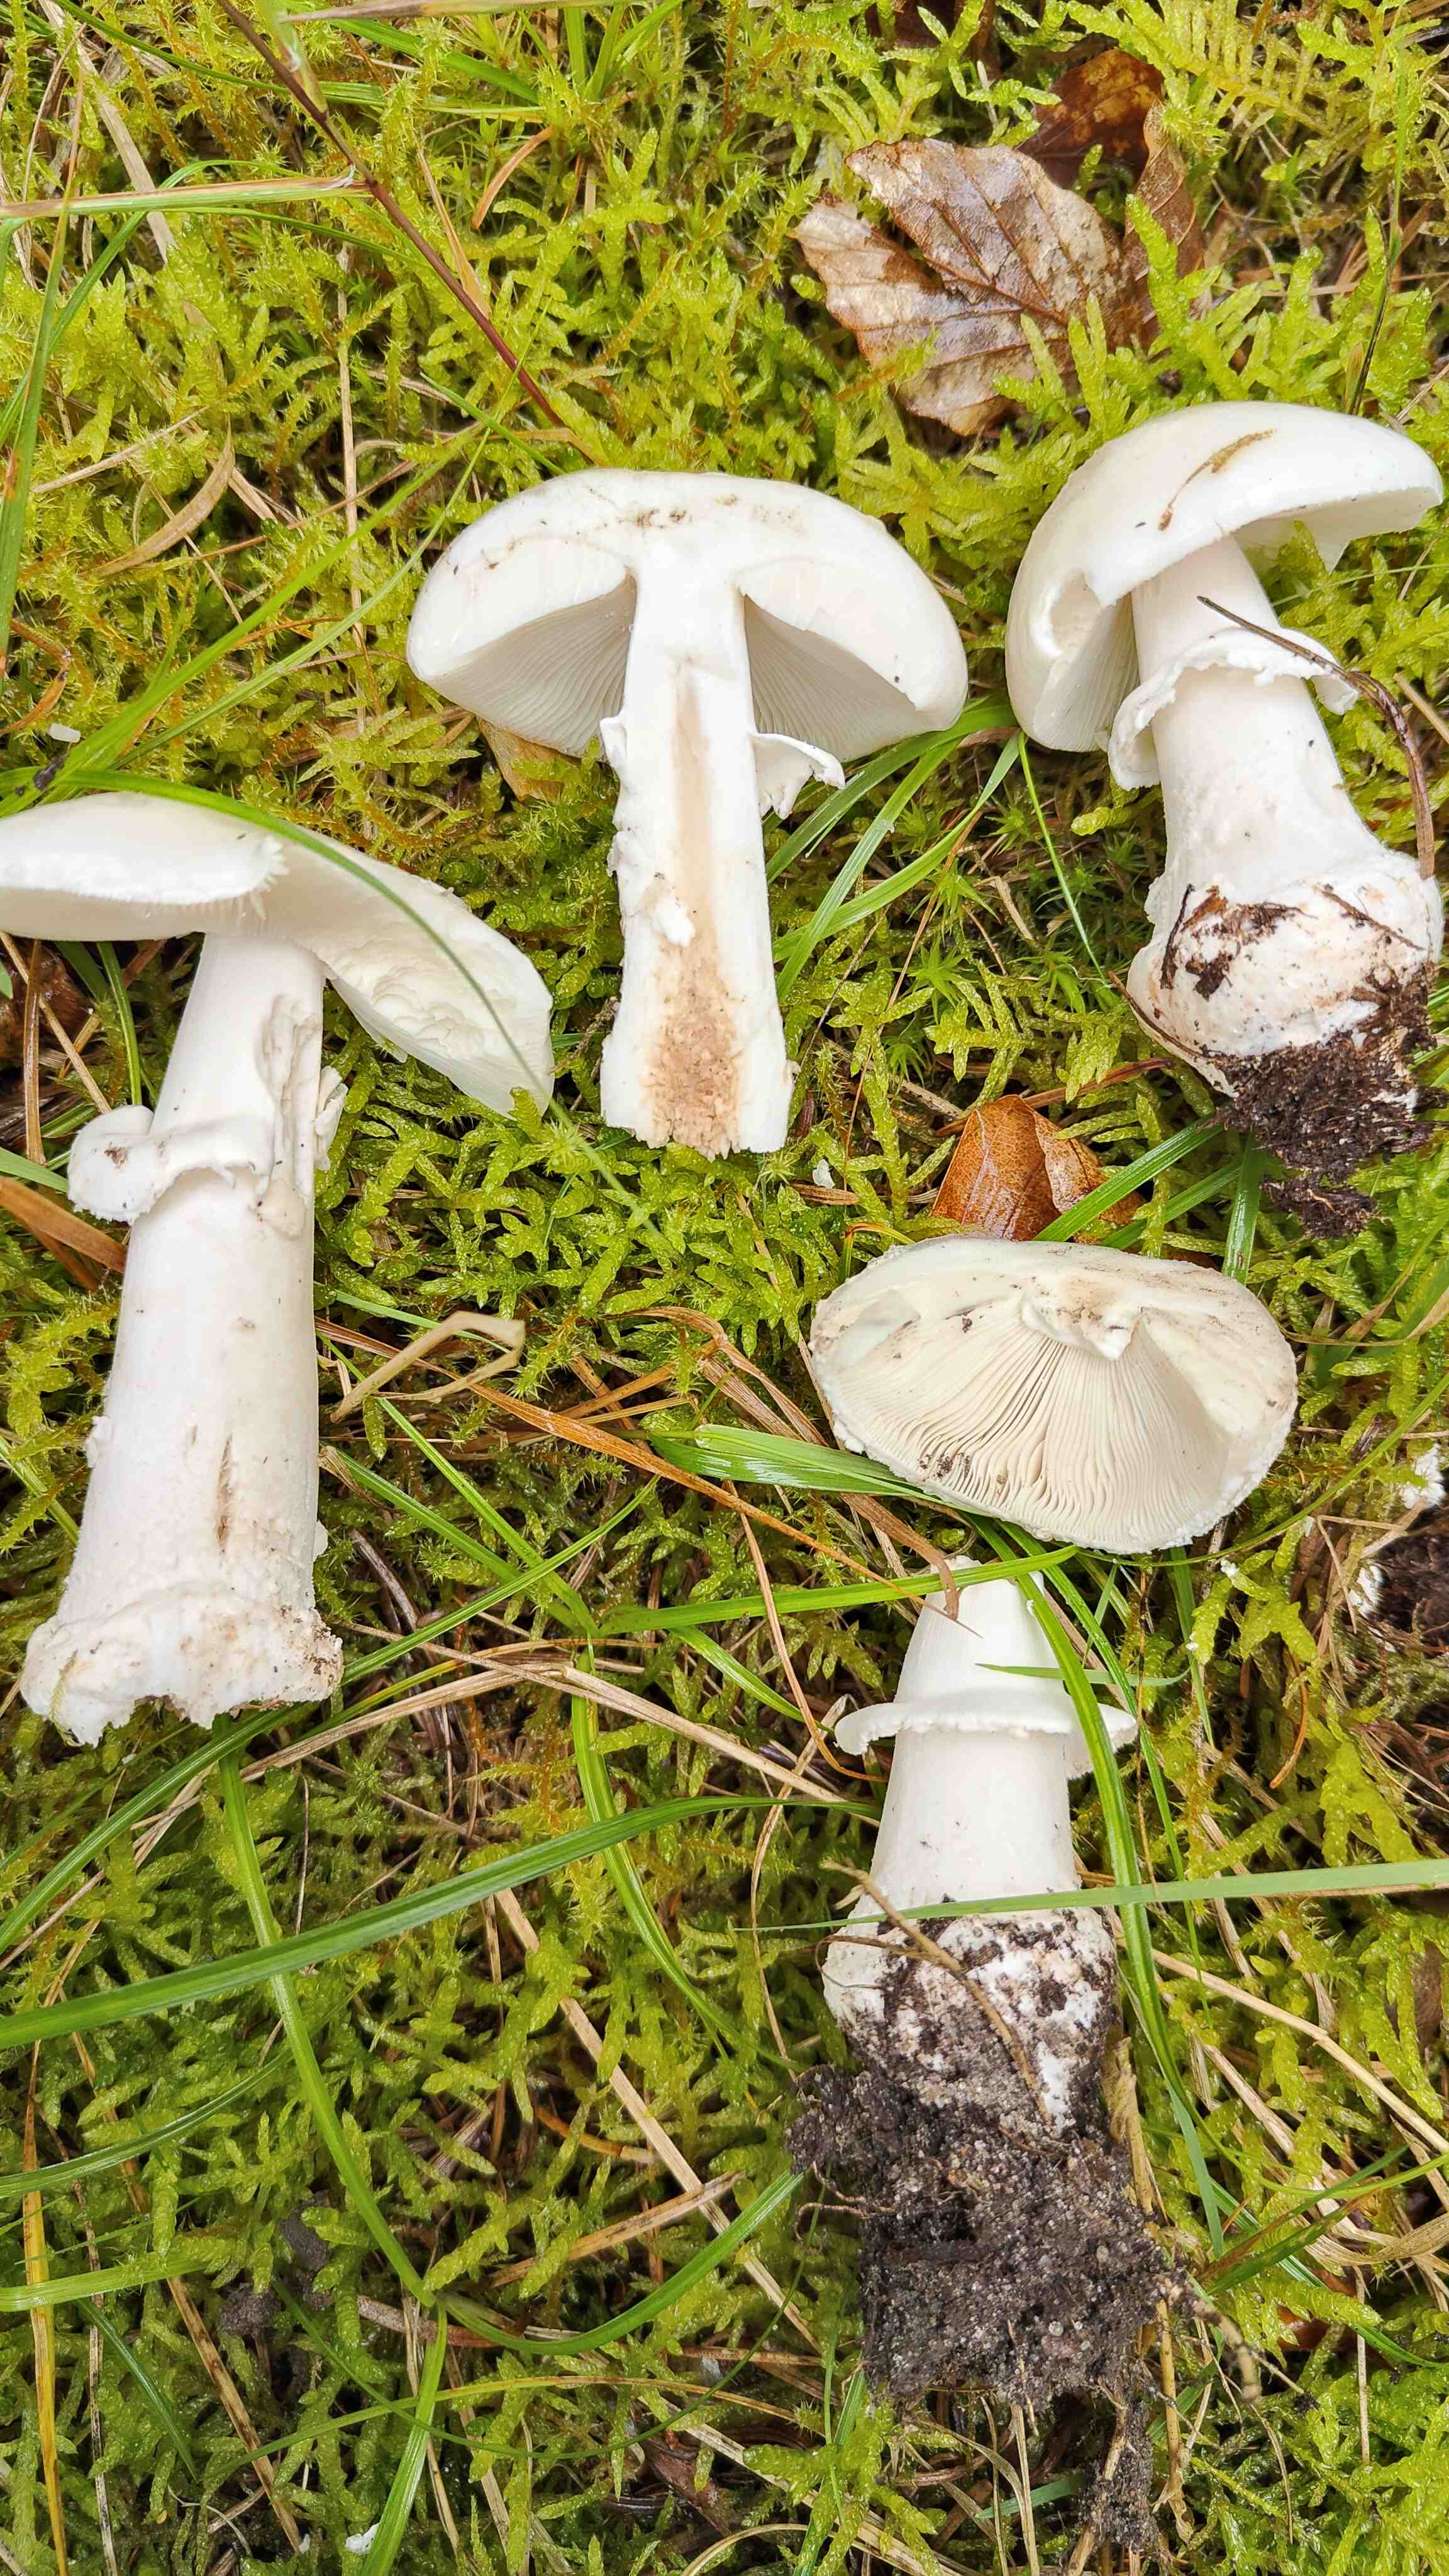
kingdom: Fungi
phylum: Basidiomycota
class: Agaricomycetes
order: Agaricales
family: Amanitaceae
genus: Amanita
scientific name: Amanita
